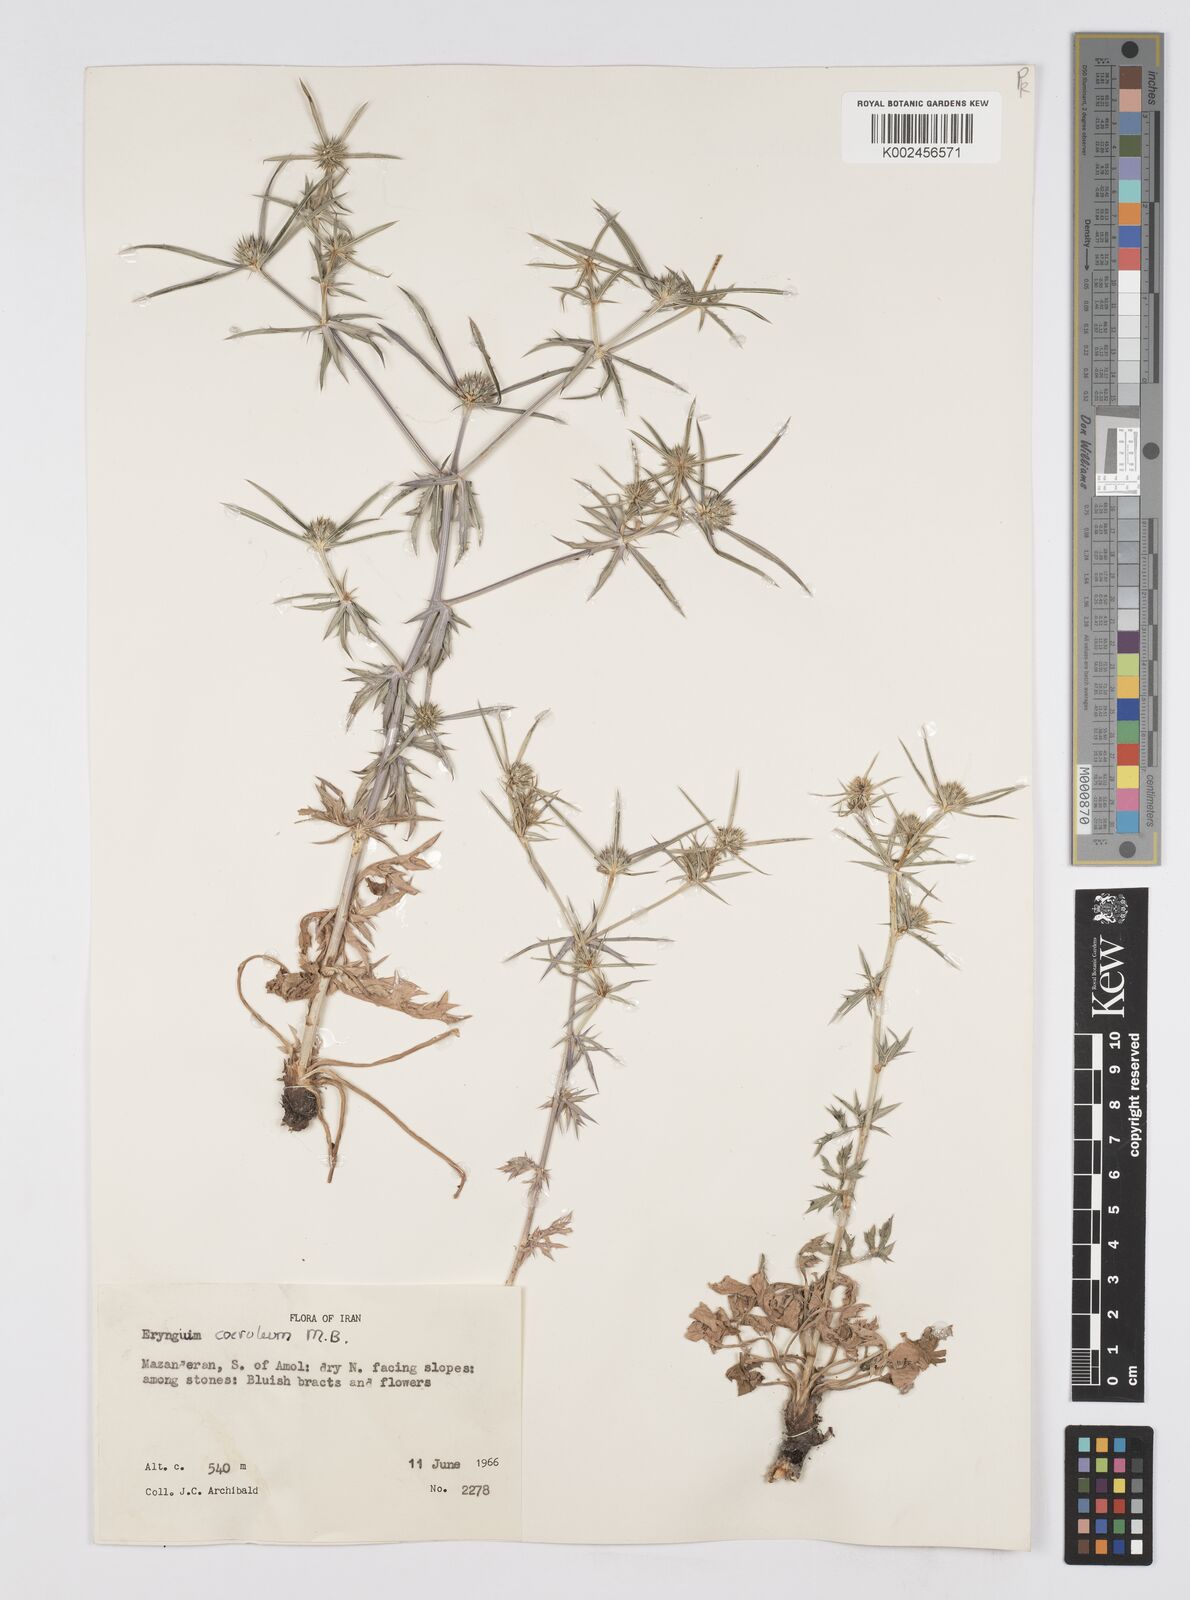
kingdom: Plantae
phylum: Tracheophyta
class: Magnoliopsida
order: Apiales
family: Apiaceae
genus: Eryngium
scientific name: Eryngium caeruleum
